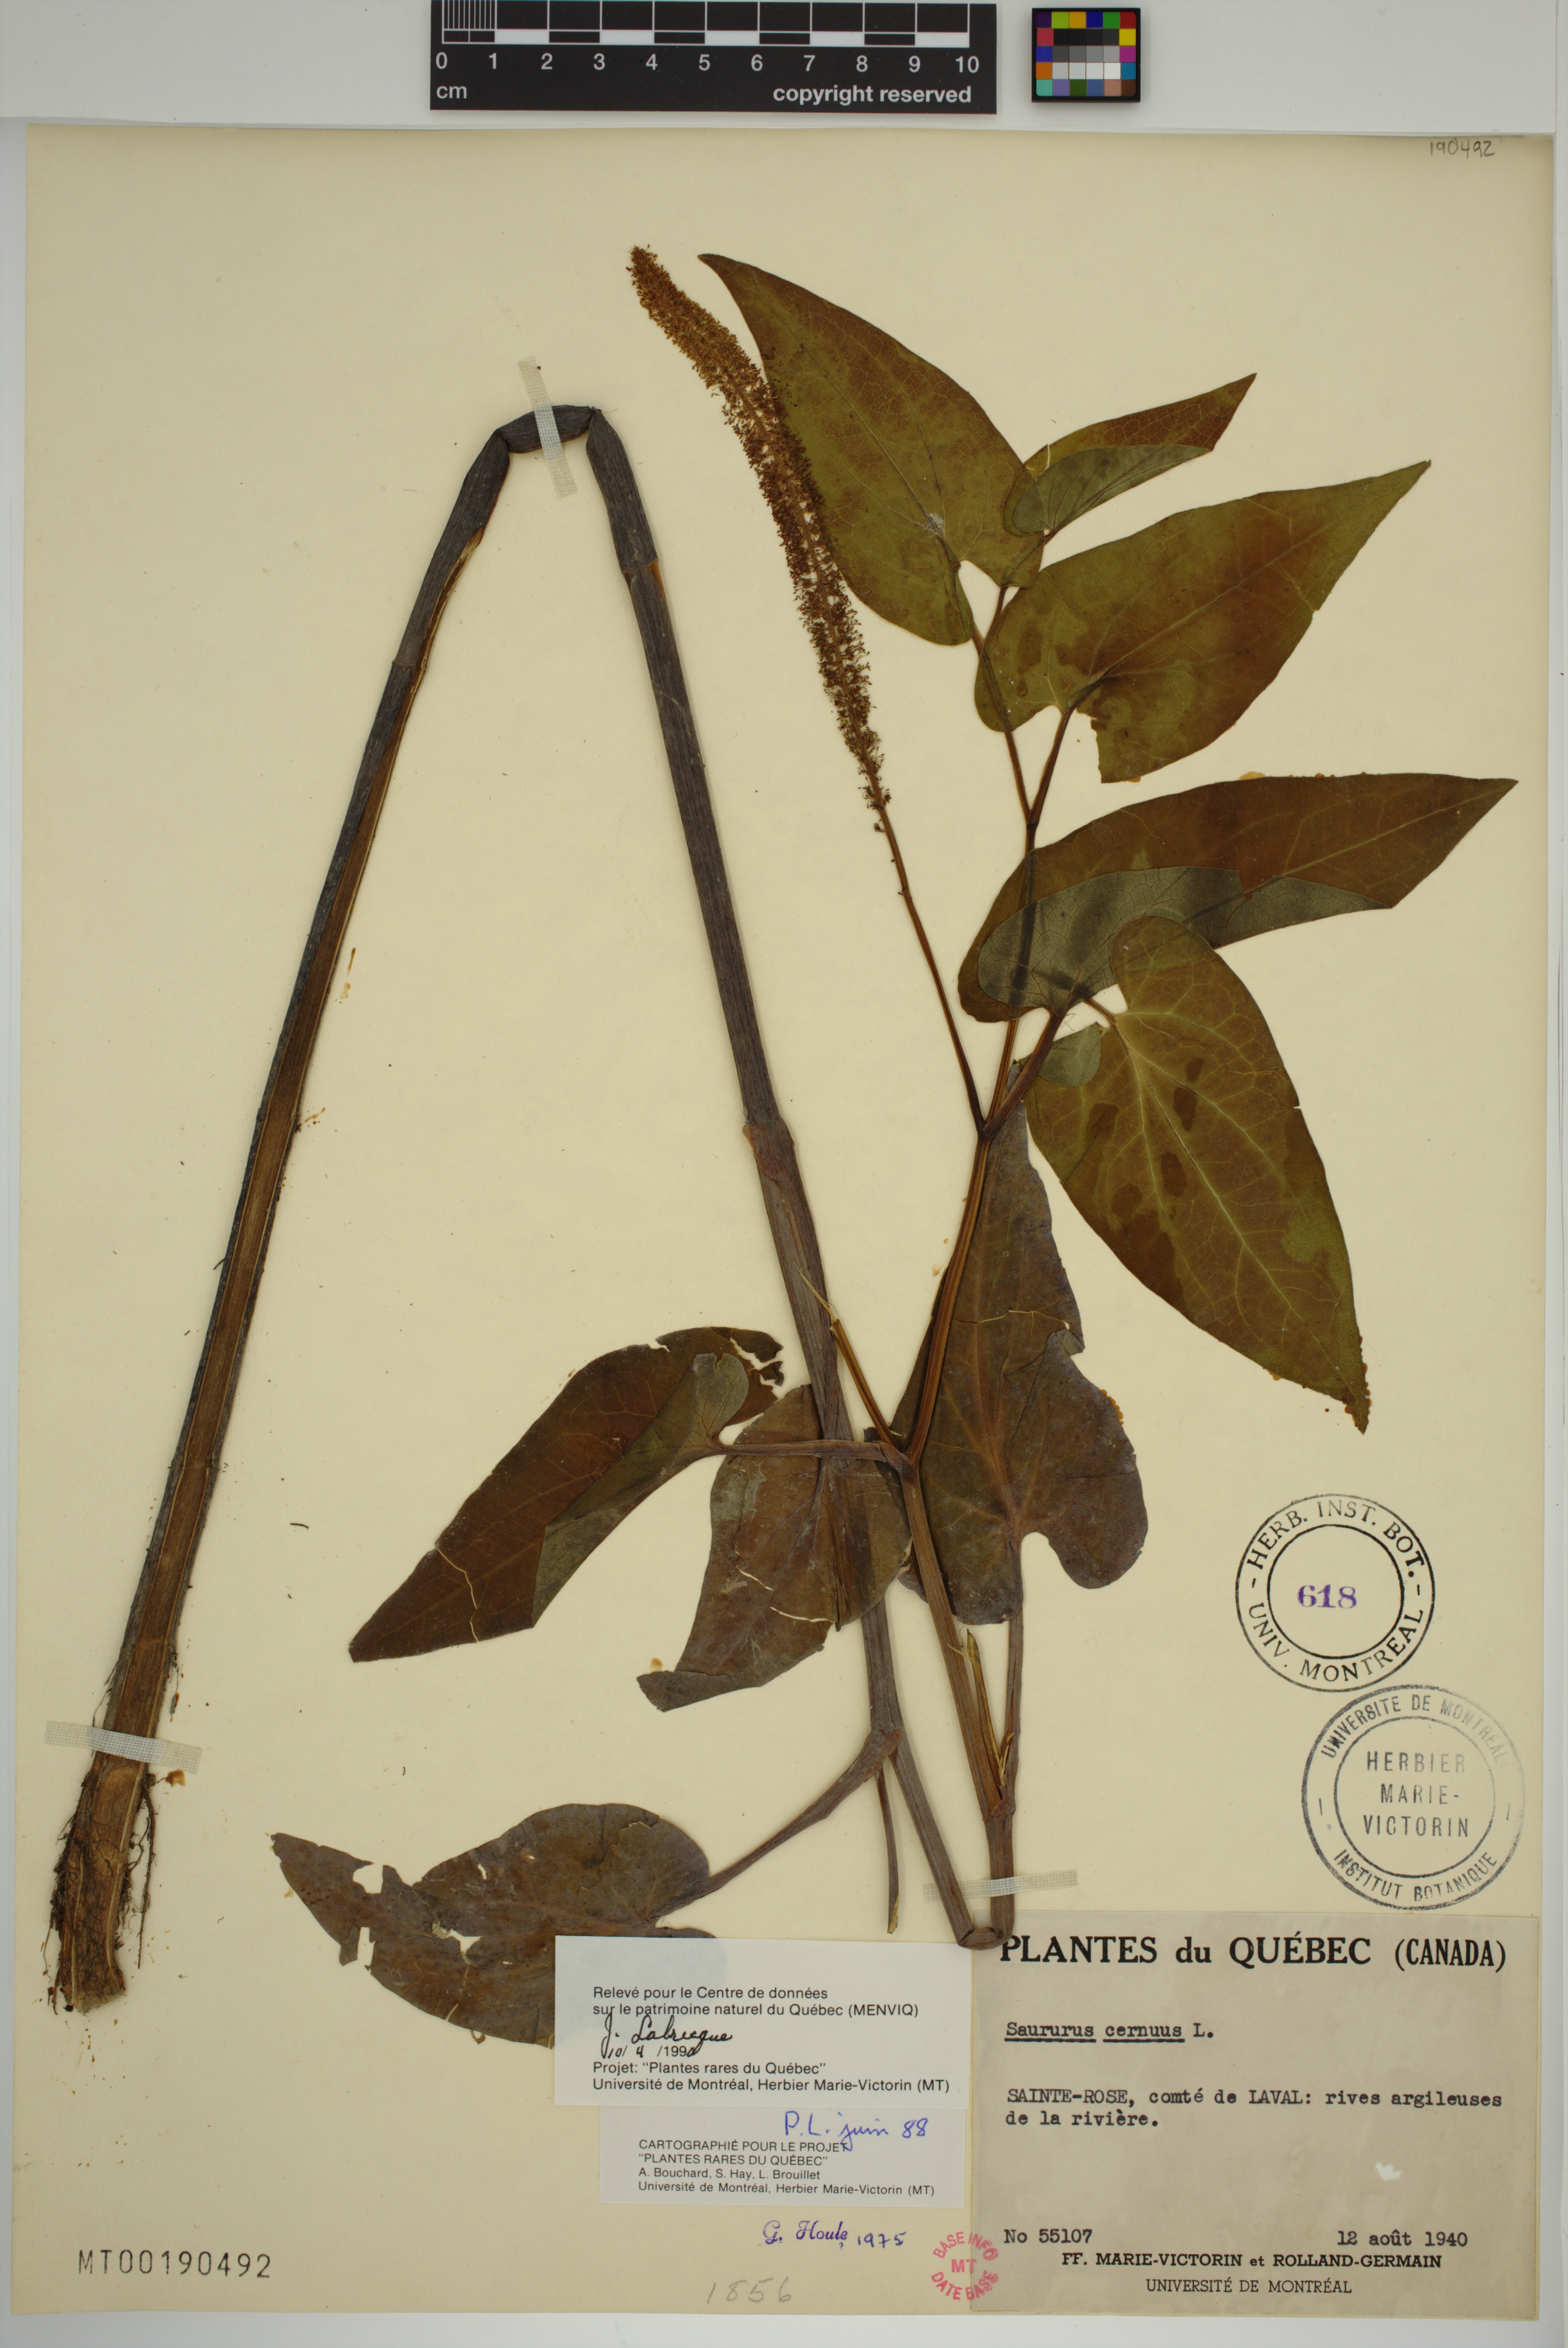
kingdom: Plantae
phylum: Tracheophyta
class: Magnoliopsida
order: Piperales
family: Saururaceae
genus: Saururus
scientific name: Saururus cernuus
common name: Lizard's-tail
